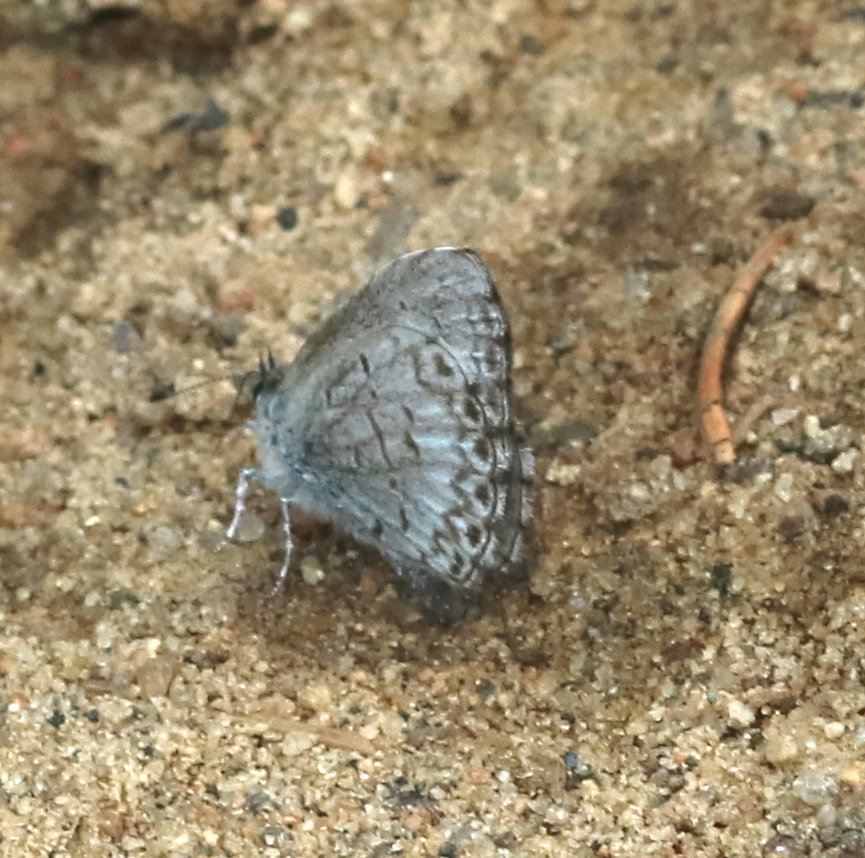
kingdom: Animalia
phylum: Arthropoda
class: Insecta
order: Lepidoptera
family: Lycaenidae
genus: Celastrina
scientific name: Celastrina lucia
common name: Northern Spring Azure
